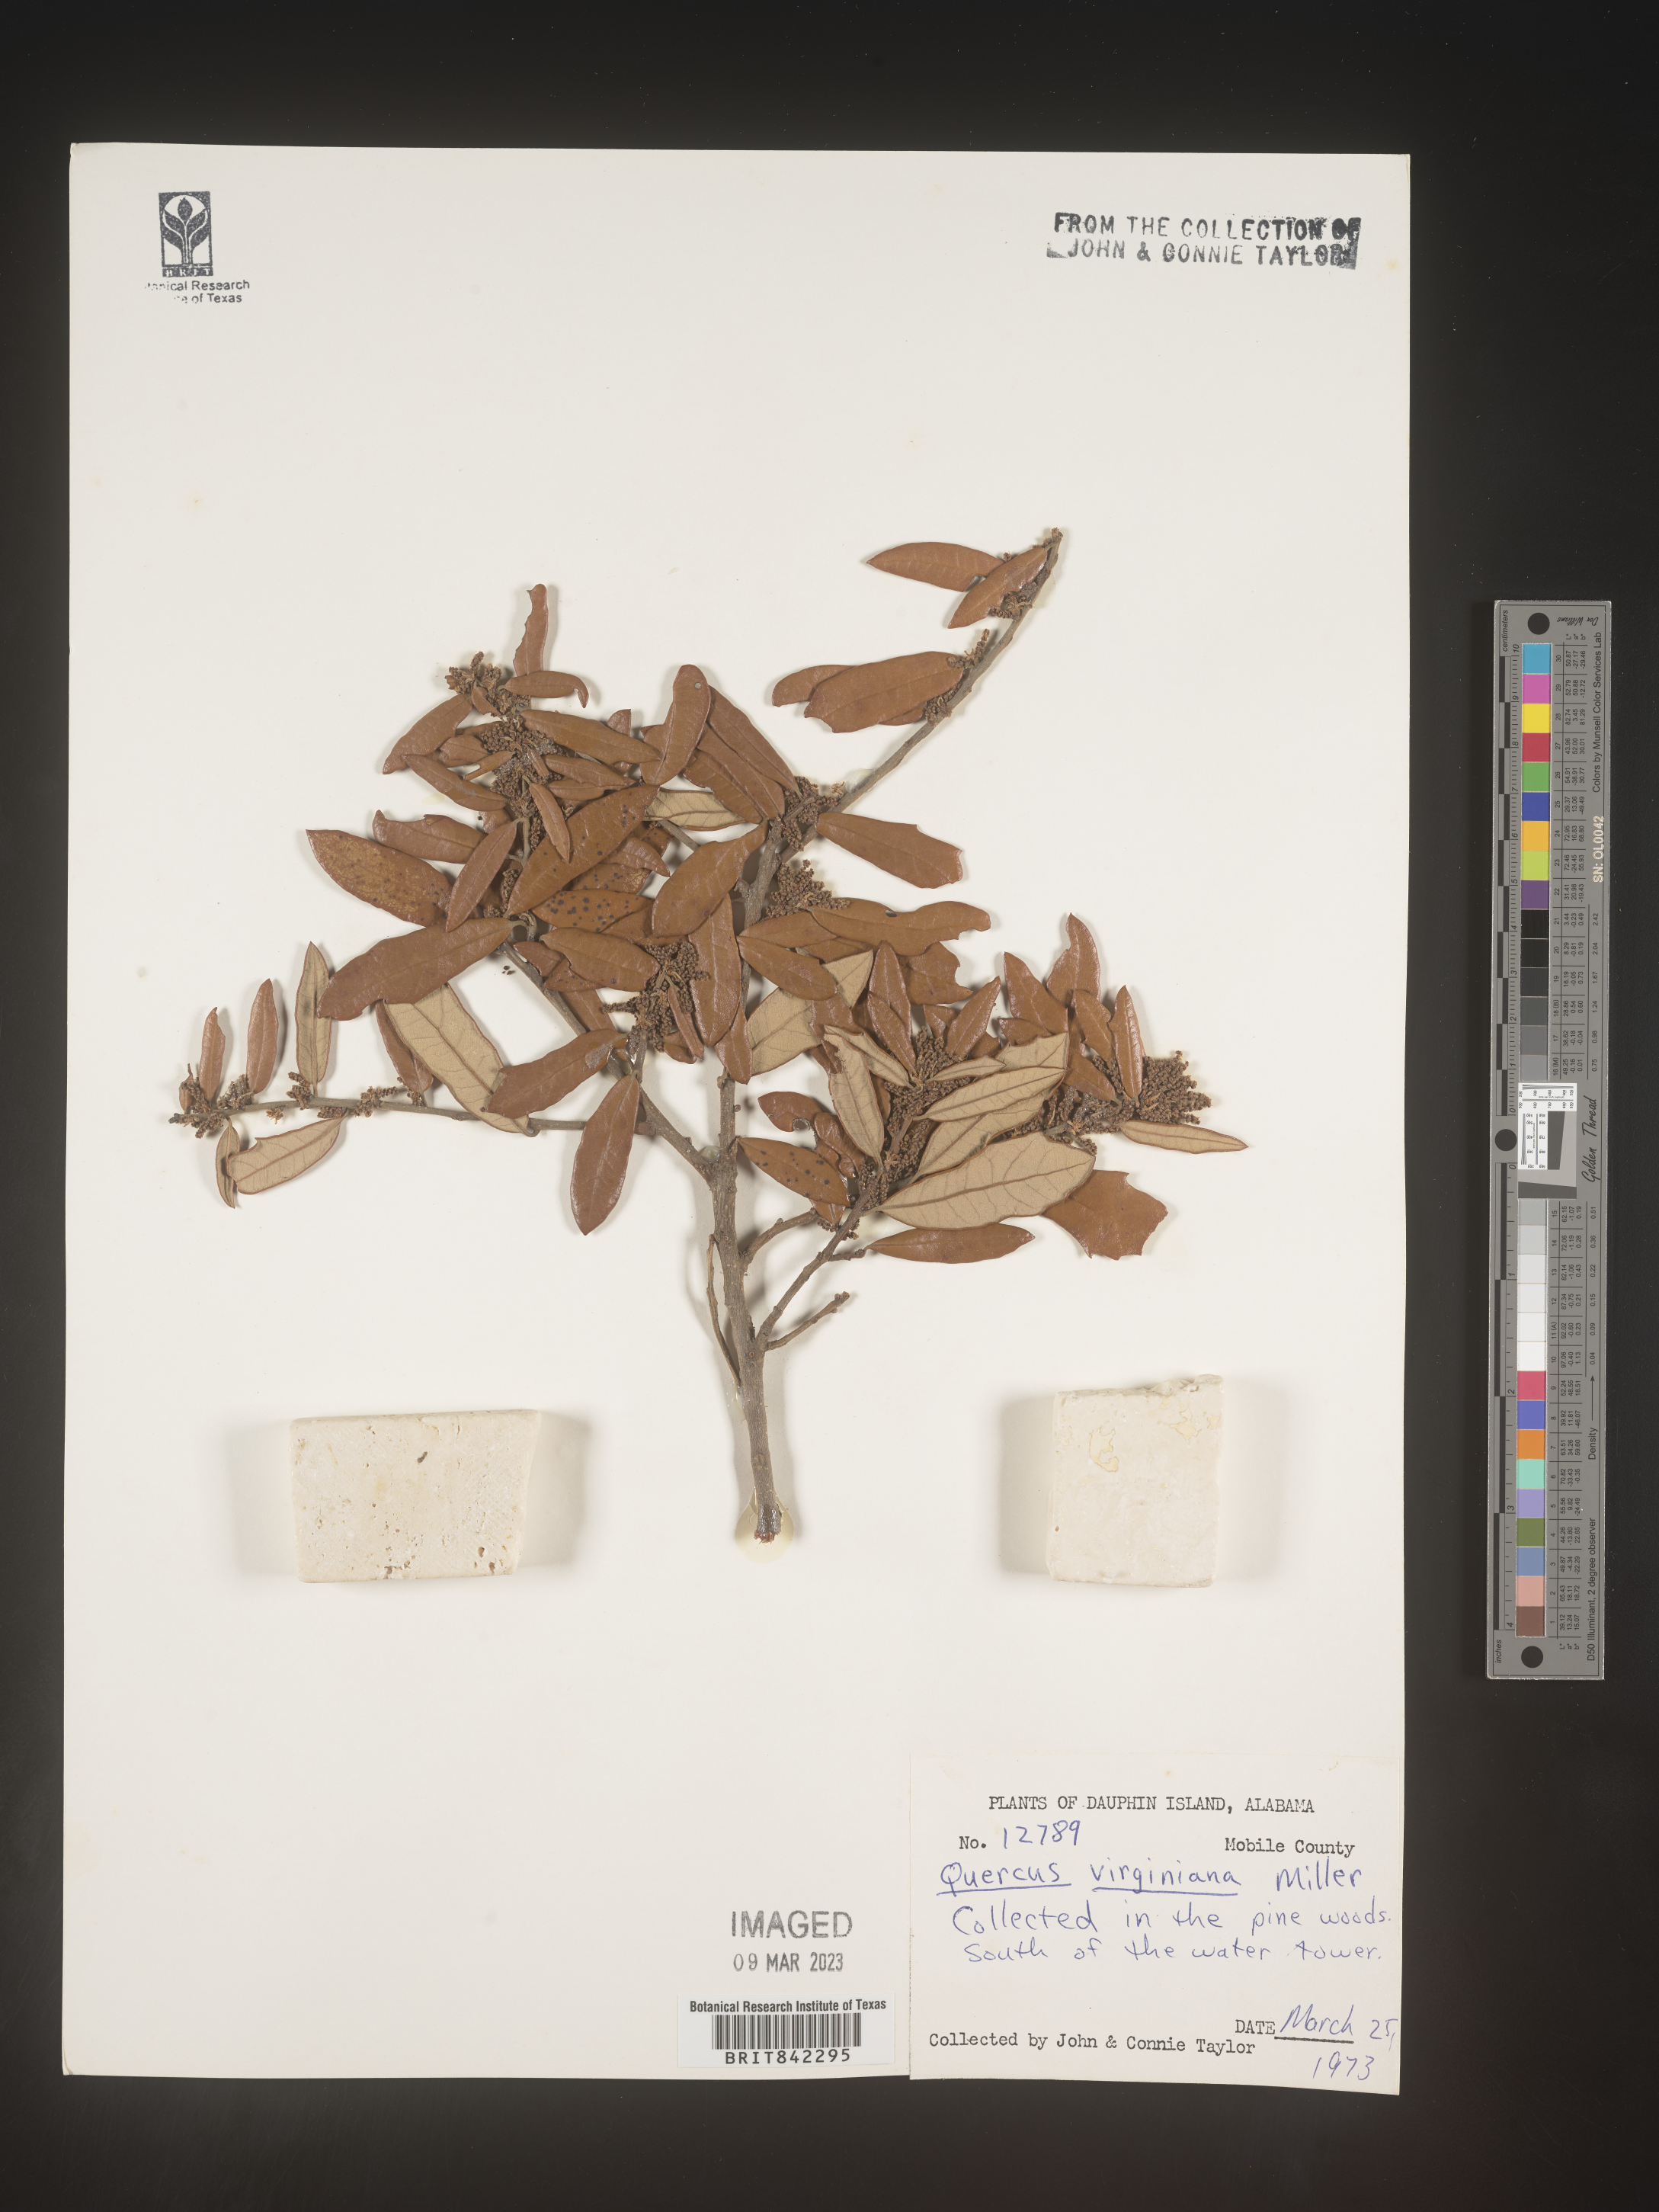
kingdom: Plantae
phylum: Tracheophyta
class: Magnoliopsida
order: Fagales
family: Fagaceae
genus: Quercus
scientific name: Quercus virginiana
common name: Southern live oak
